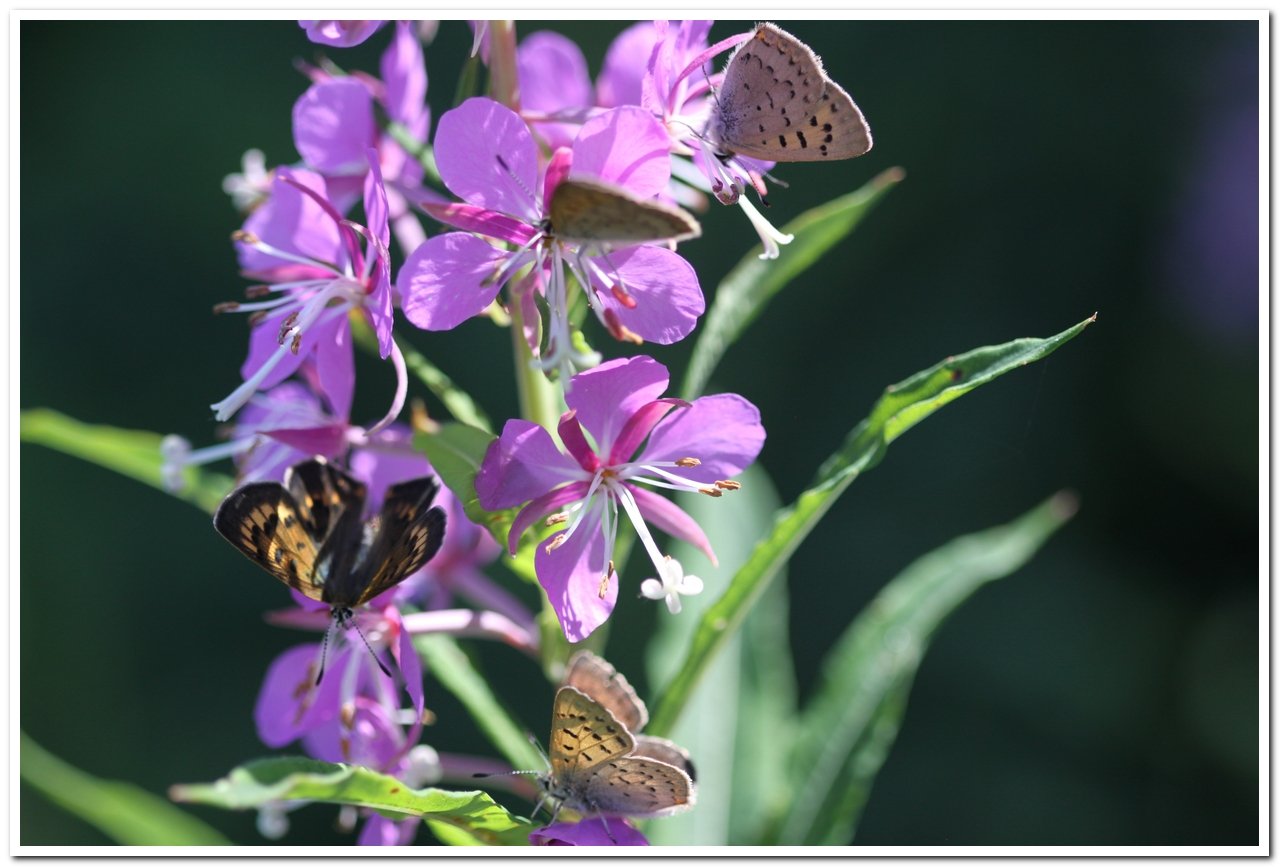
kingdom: Animalia
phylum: Arthropoda
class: Insecta
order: Lepidoptera
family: Lycaenidae
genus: Epidemia
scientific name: Epidemia dorcas
